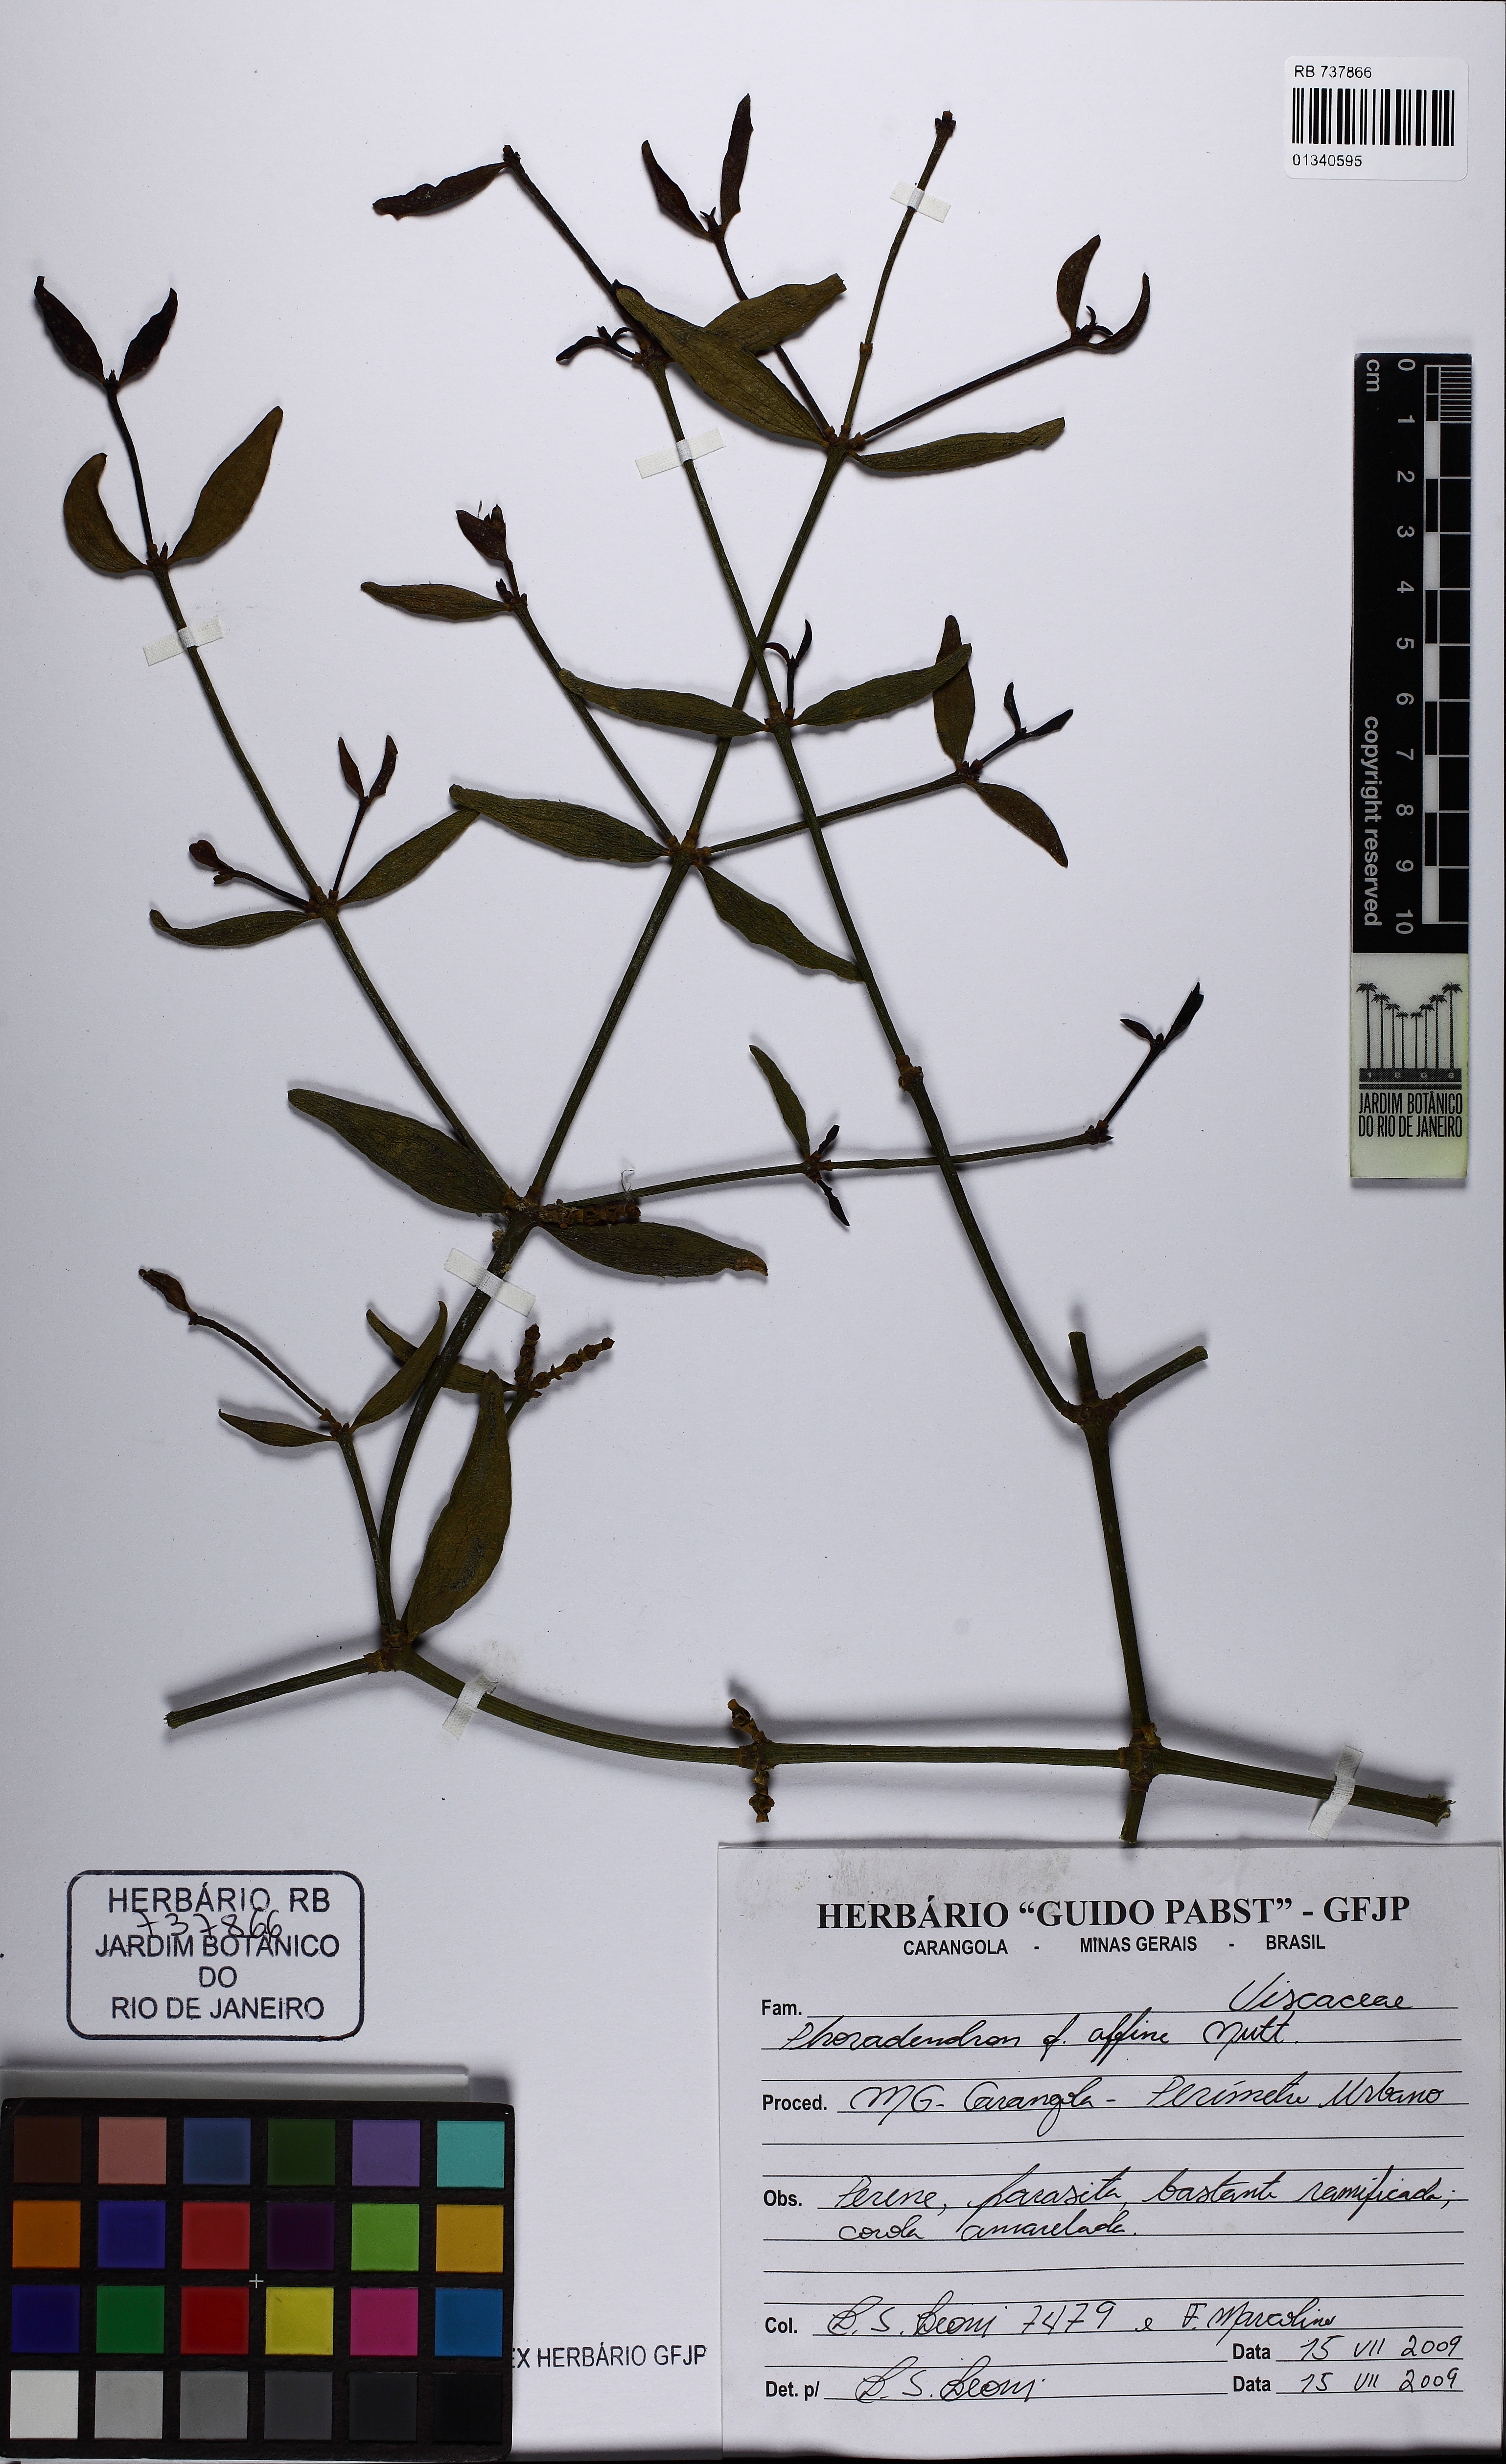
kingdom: Plantae
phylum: Tracheophyta
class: Magnoliopsida
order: Santalales
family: Viscaceae
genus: Phoradendron
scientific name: Phoradendron affine
